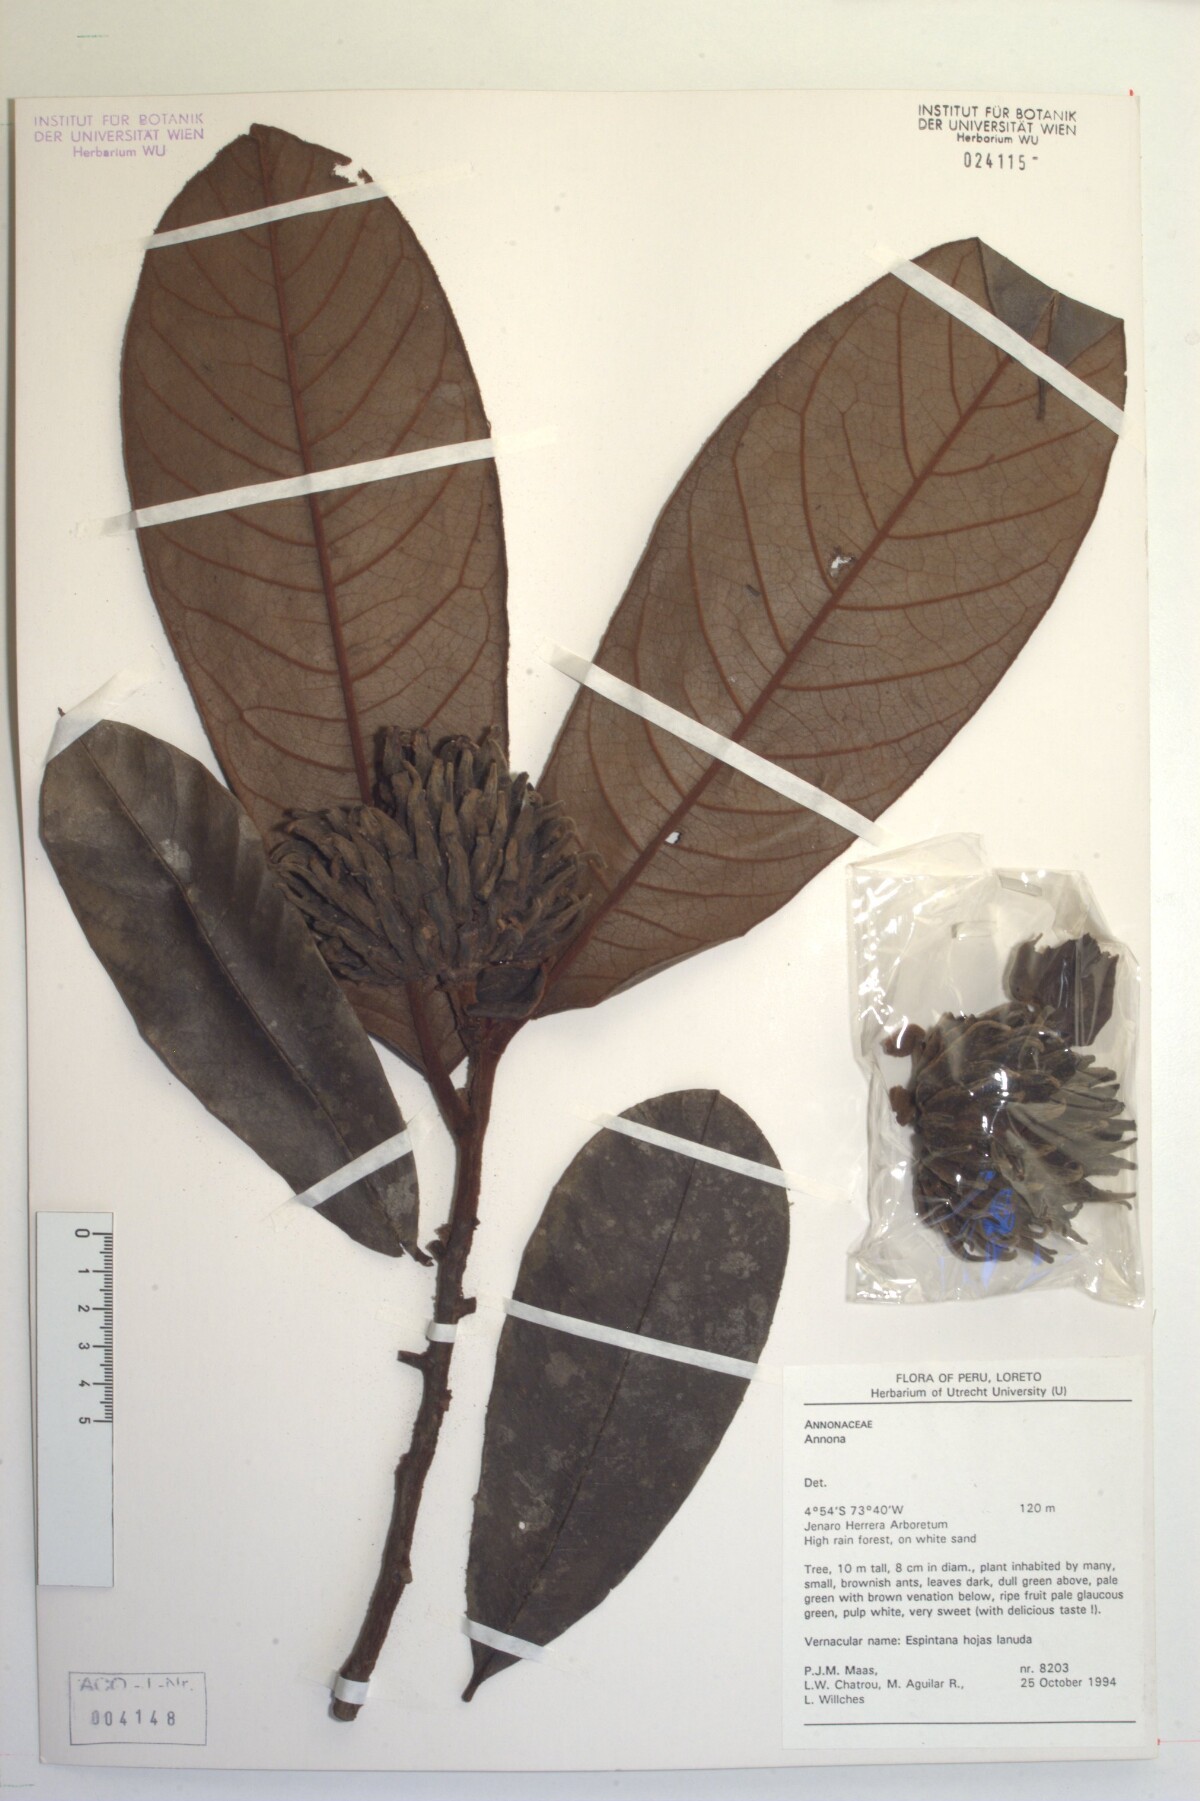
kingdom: Plantae
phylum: Tracheophyta
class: Magnoliopsida
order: Magnoliales
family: Annonaceae
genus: Annona
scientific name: Annona
